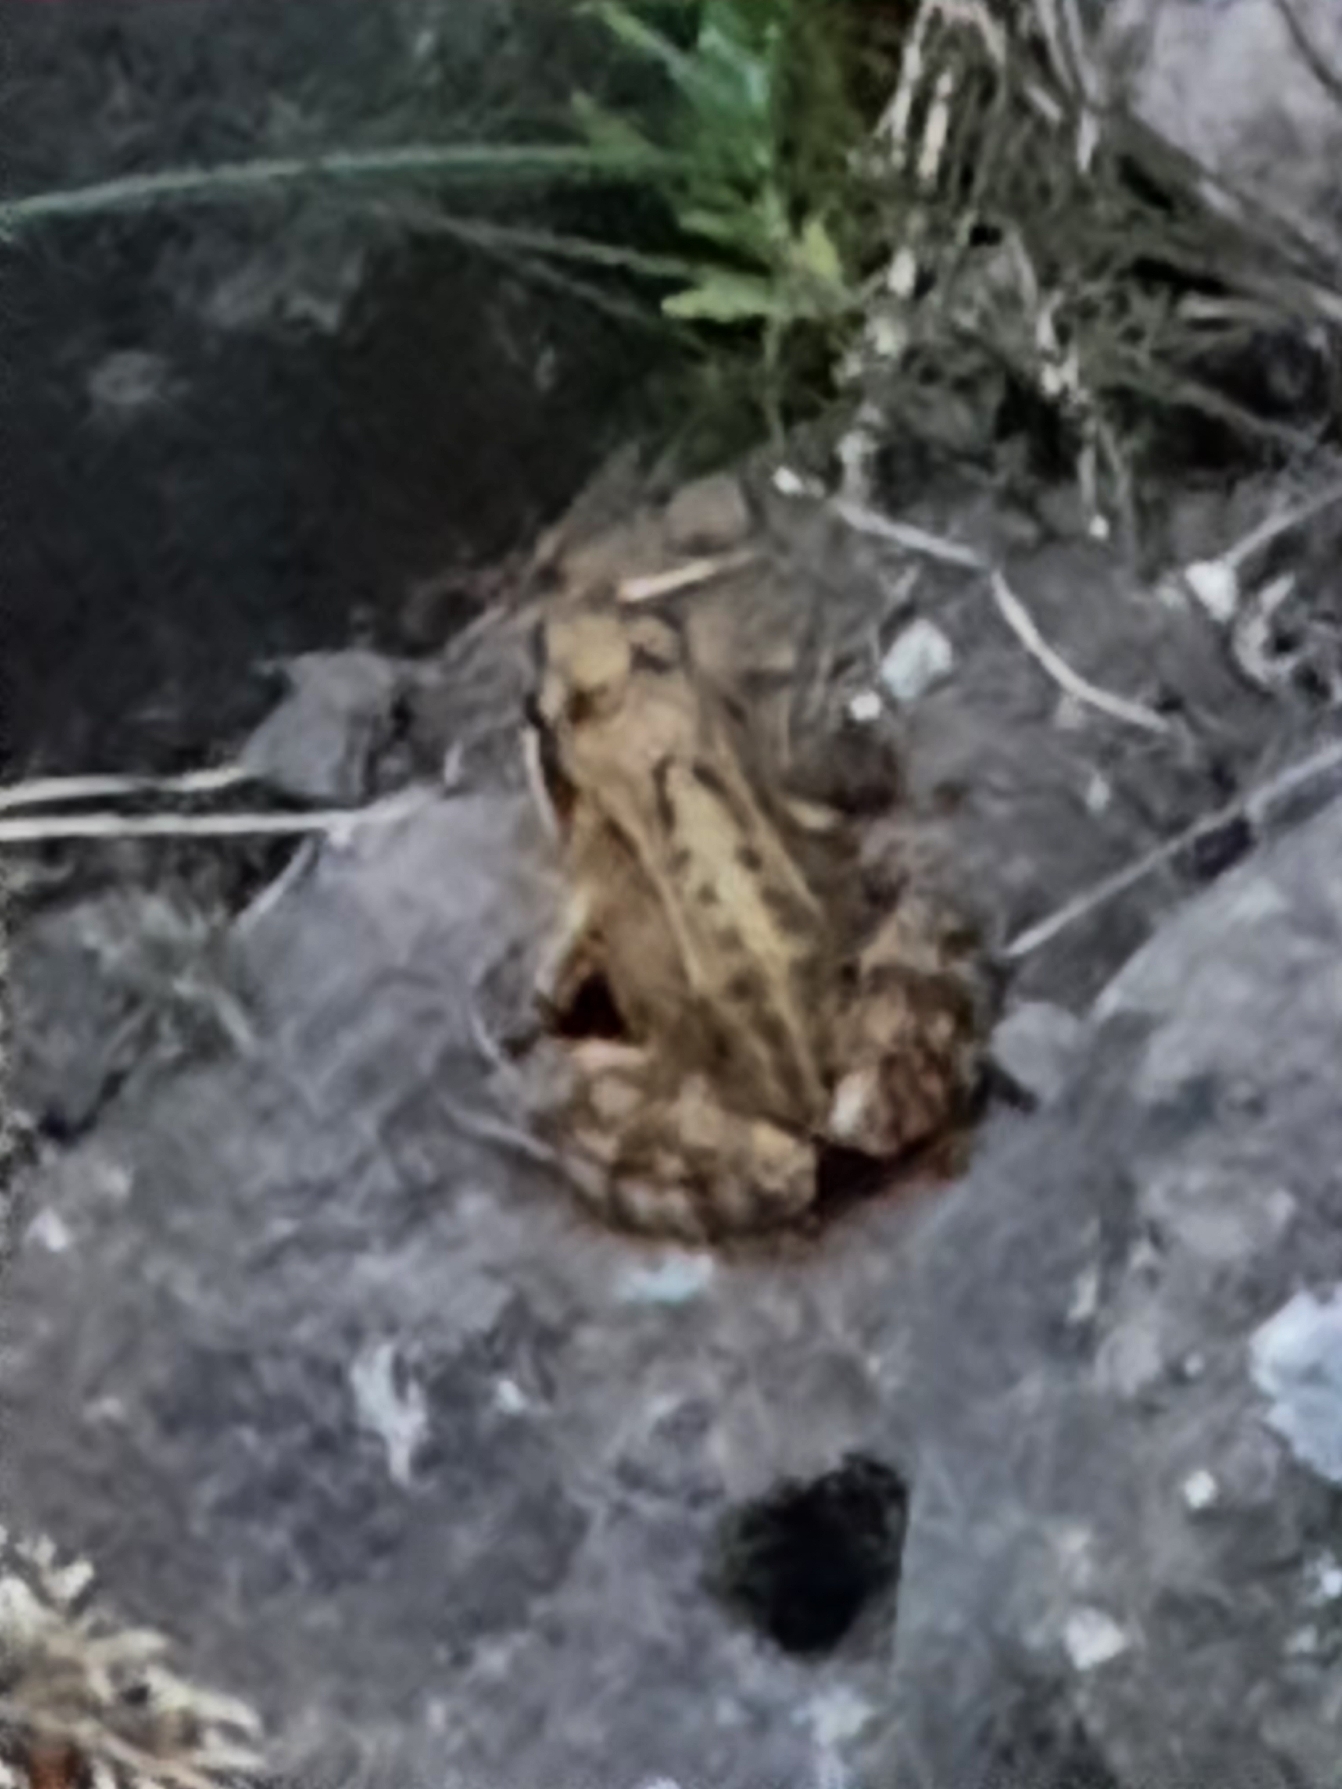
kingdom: Animalia
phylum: Chordata
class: Amphibia
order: Anura
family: Ranidae
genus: Rana
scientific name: Rana temporaria
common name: Butsnudet frø
